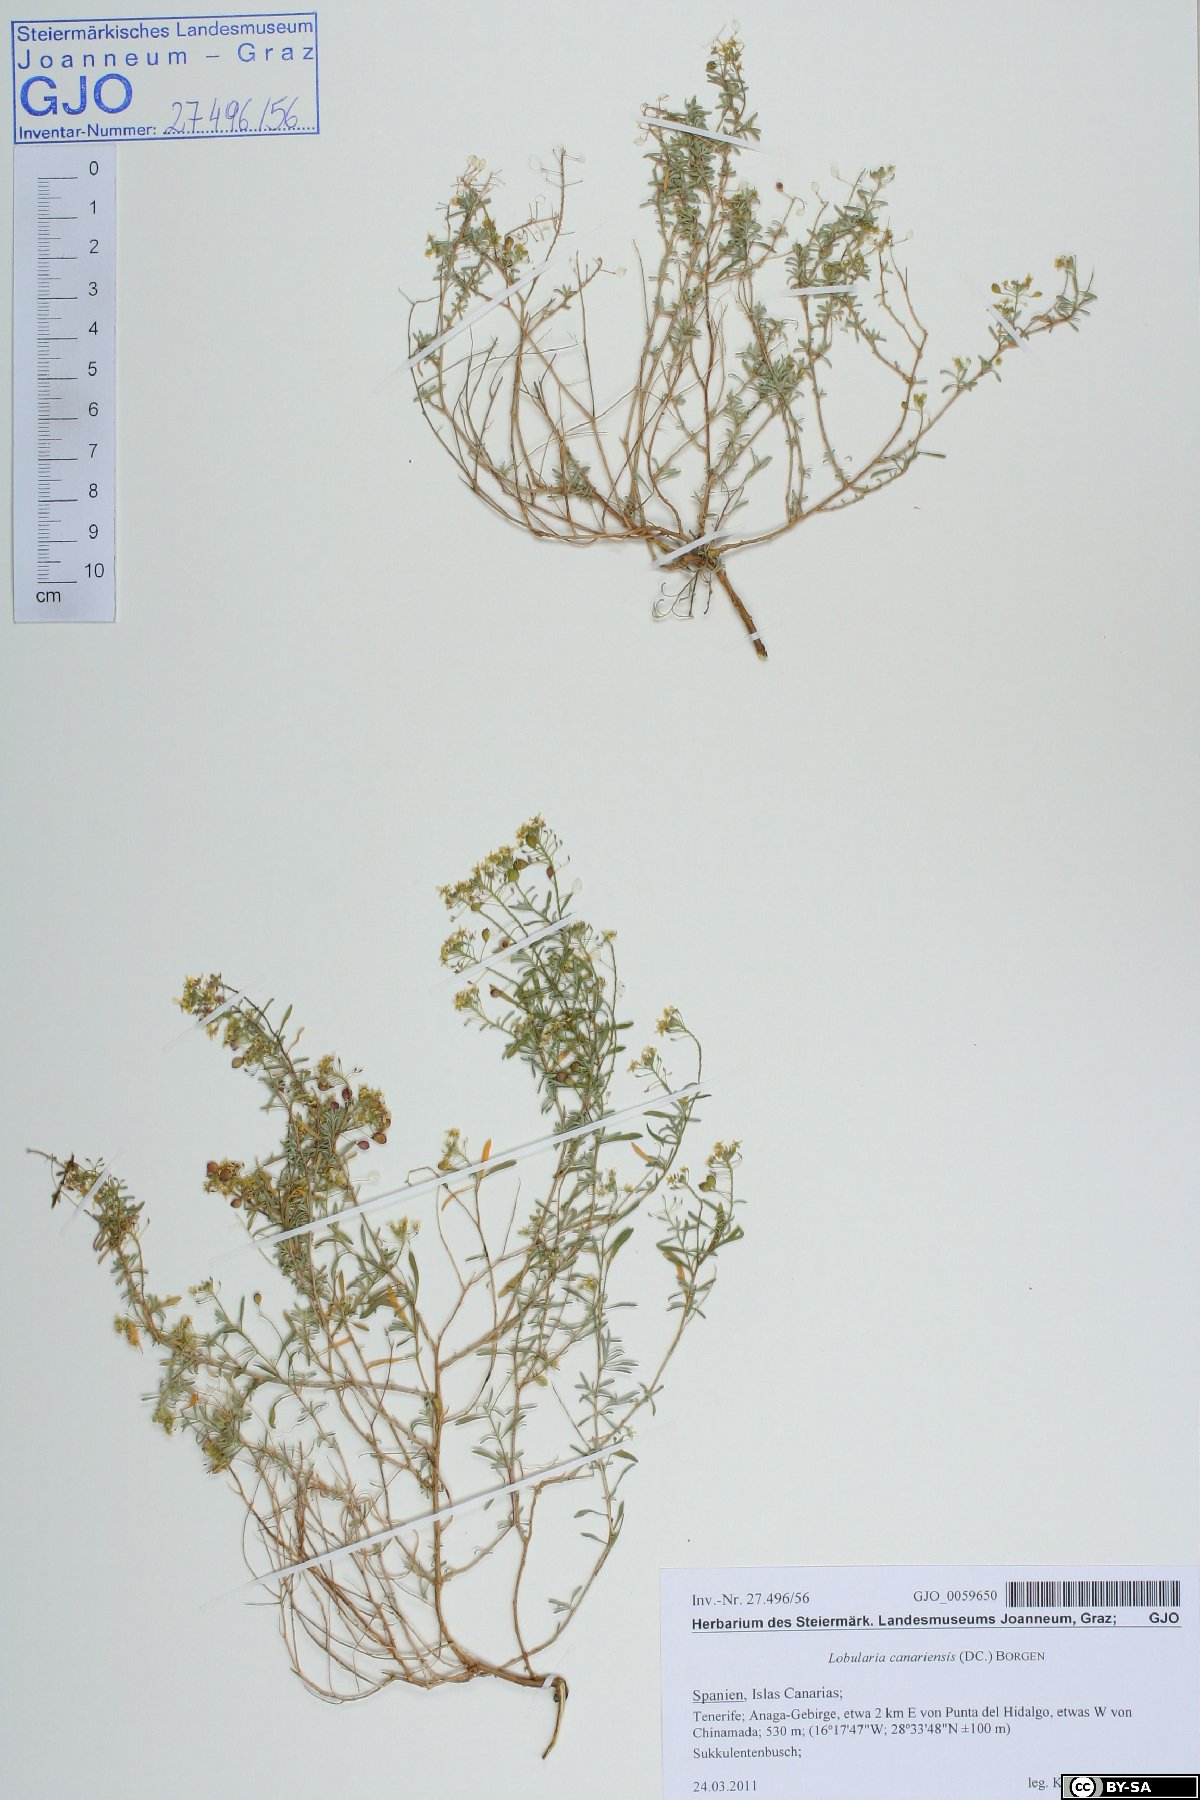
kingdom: Plantae
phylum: Tracheophyta
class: Magnoliopsida
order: Brassicales
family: Brassicaceae
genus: Lobularia
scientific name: Lobularia canariensis
